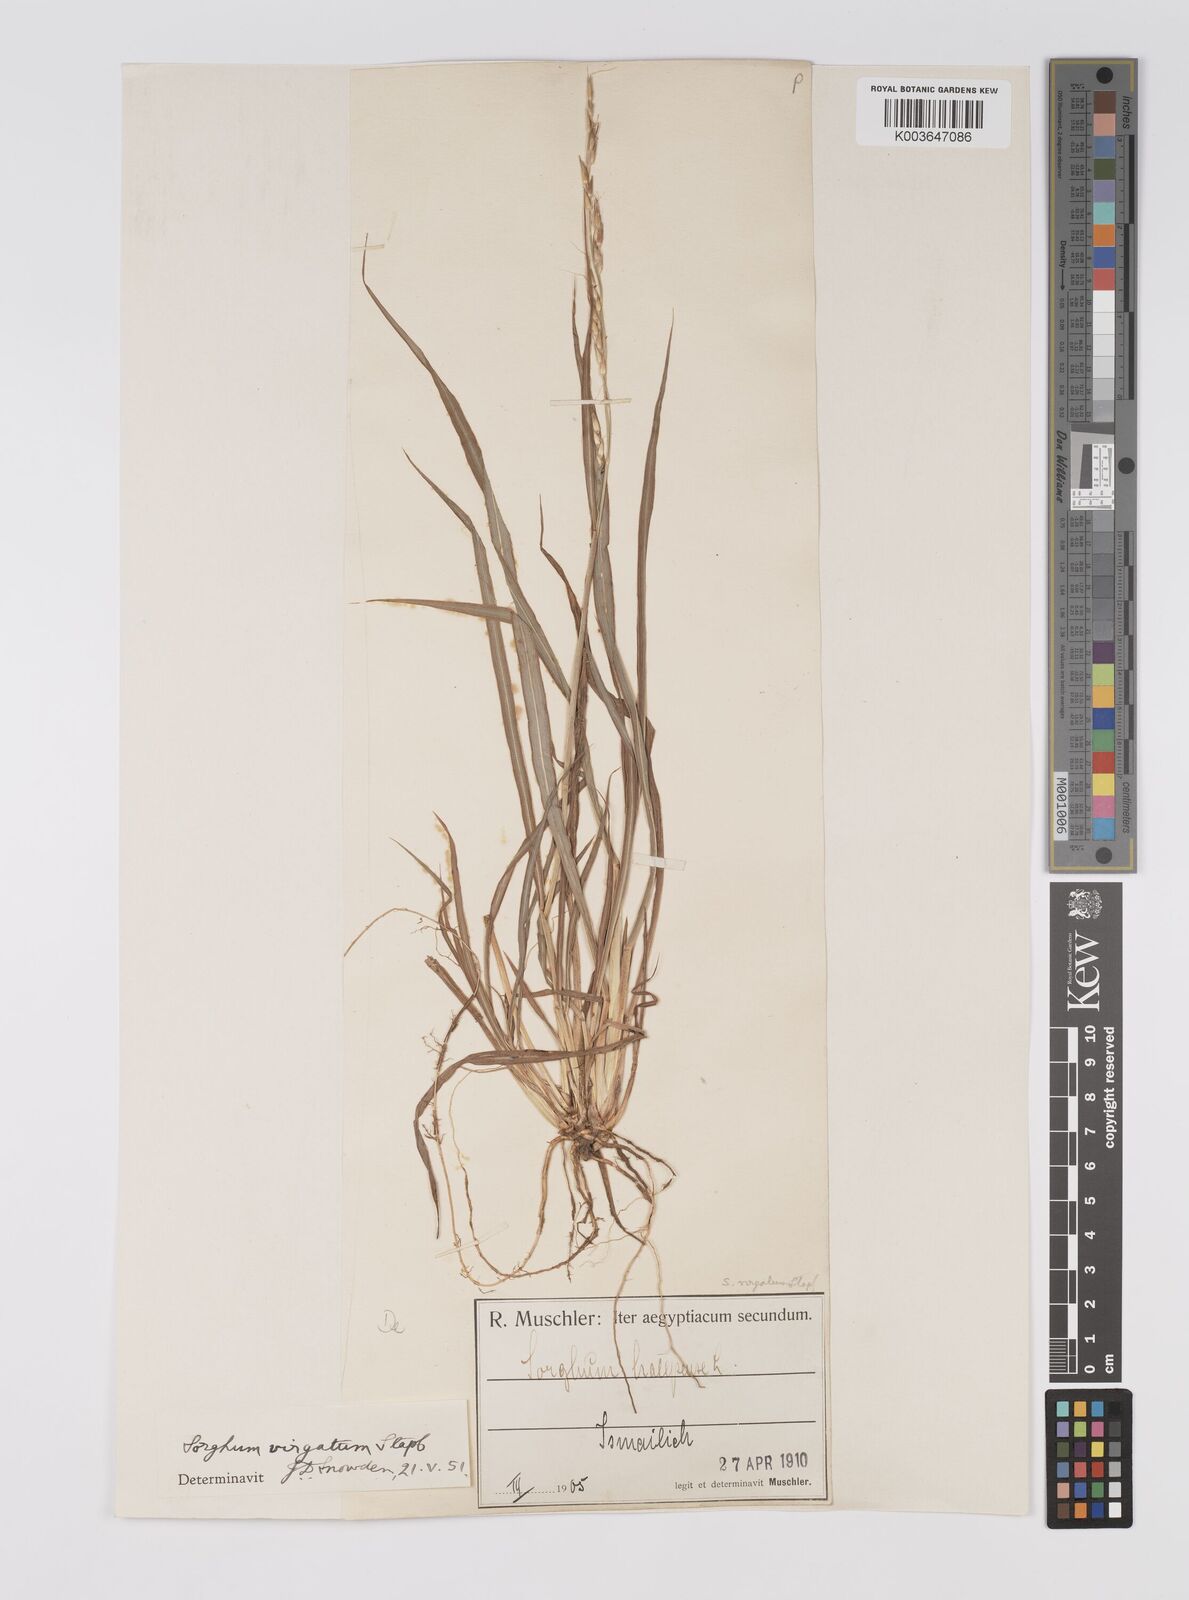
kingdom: Plantae
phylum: Tracheophyta
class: Liliopsida
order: Poales
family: Poaceae
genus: Sorghum
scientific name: Sorghum virgatum
